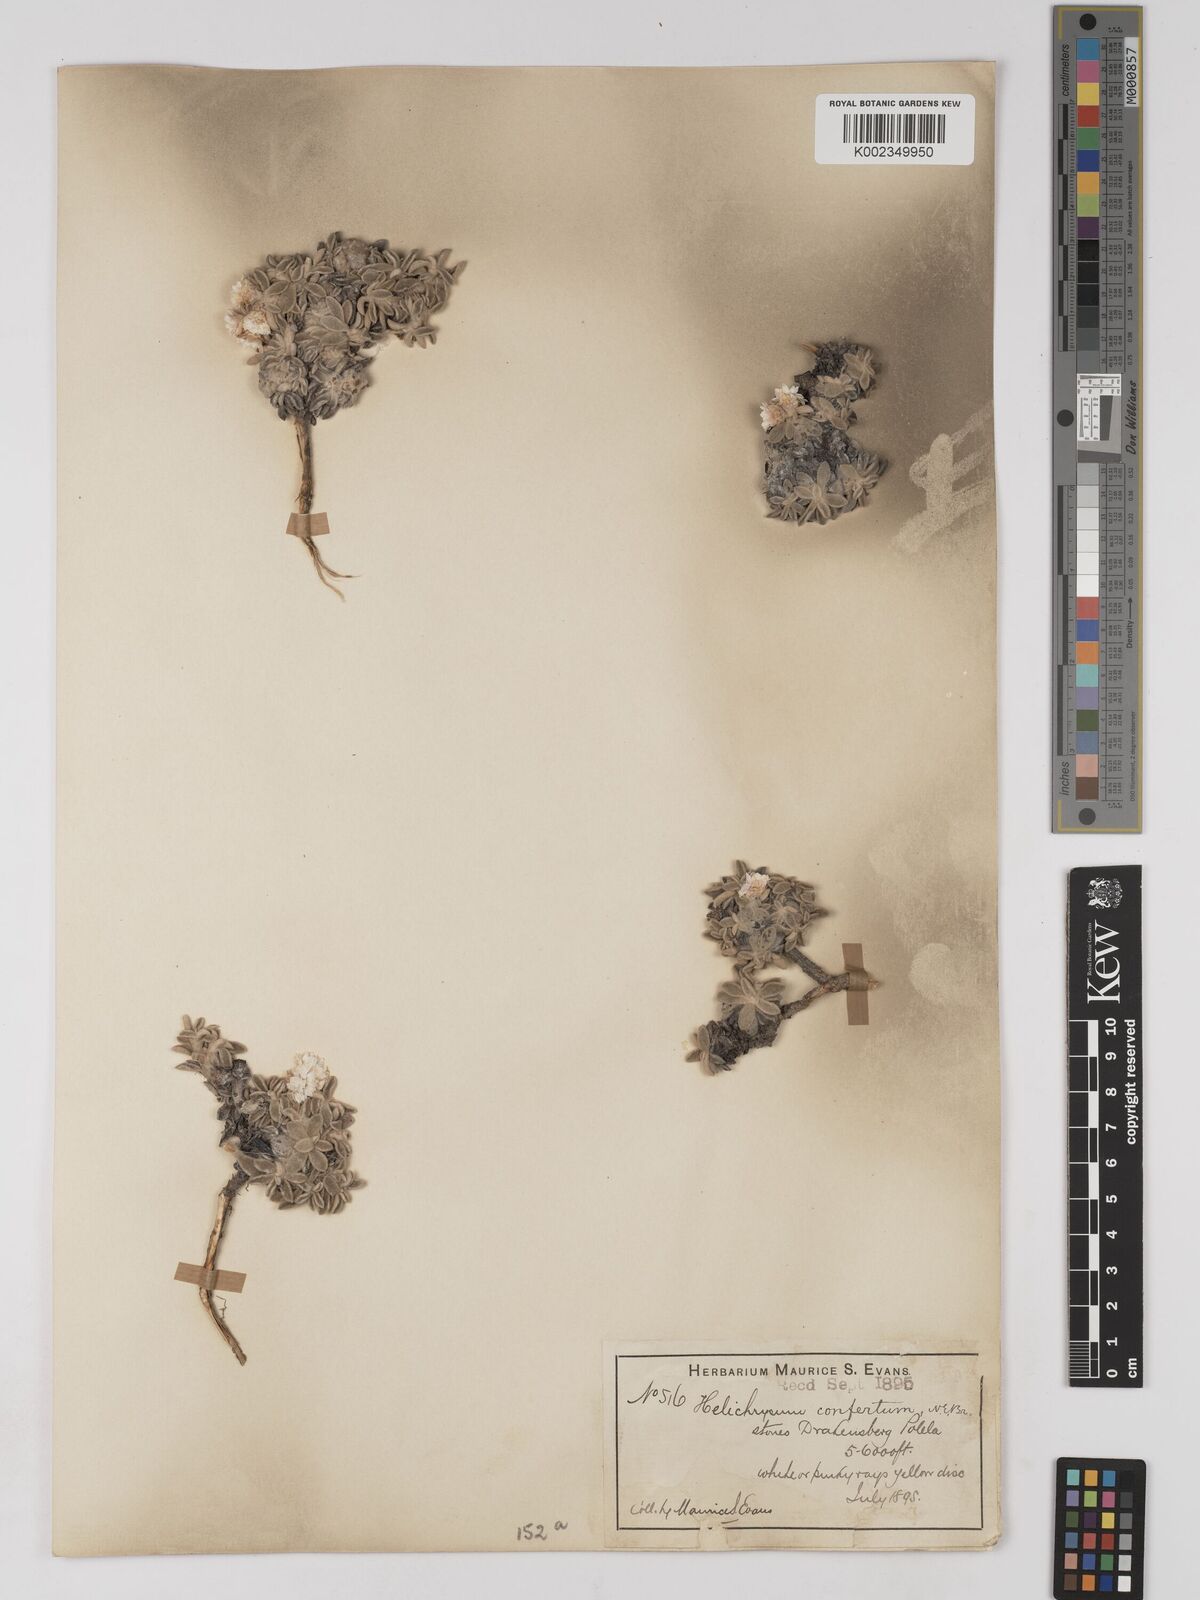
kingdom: Plantae
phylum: Tracheophyta
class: Magnoliopsida
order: Asterales
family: Asteraceae
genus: Helichrysum
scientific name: Helichrysum confertum
